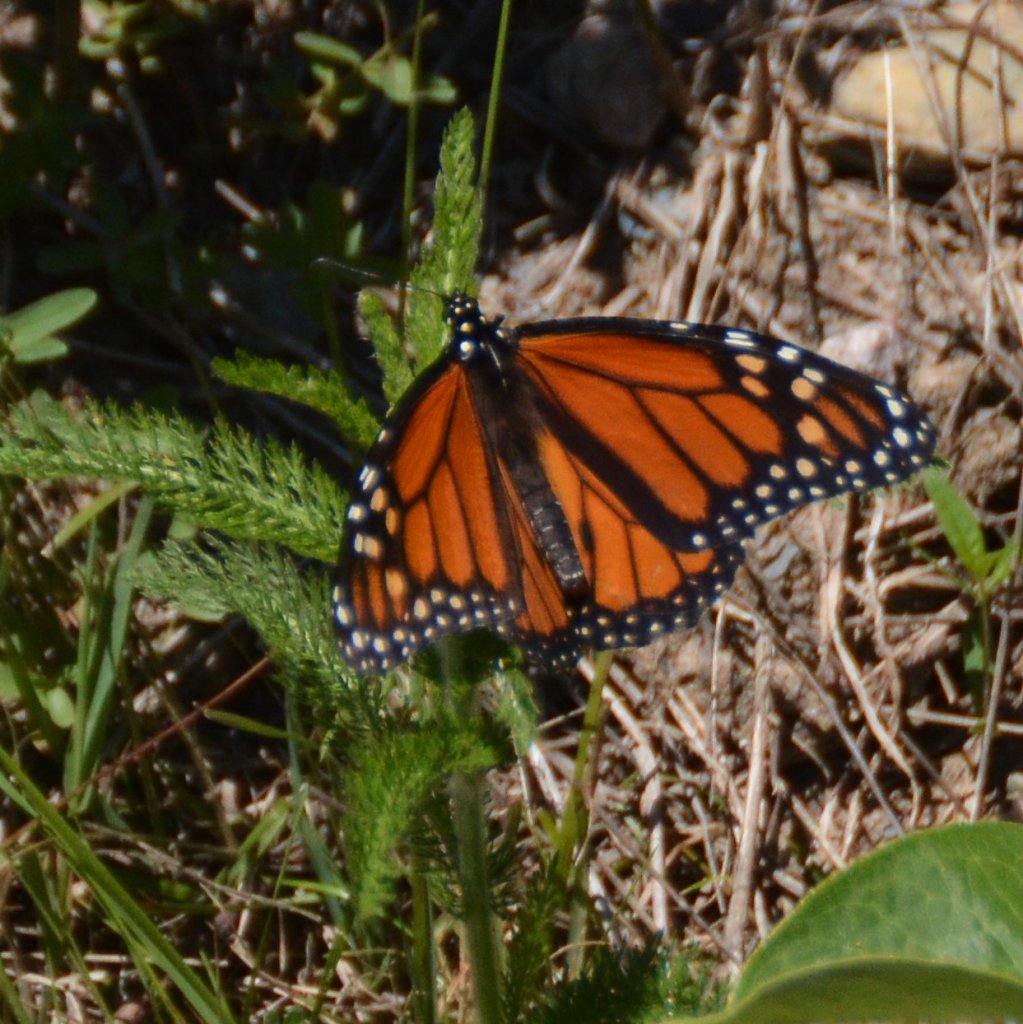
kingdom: Animalia
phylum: Arthropoda
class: Insecta
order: Lepidoptera
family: Nymphalidae
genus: Danaus
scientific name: Danaus plexippus
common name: Monarch
